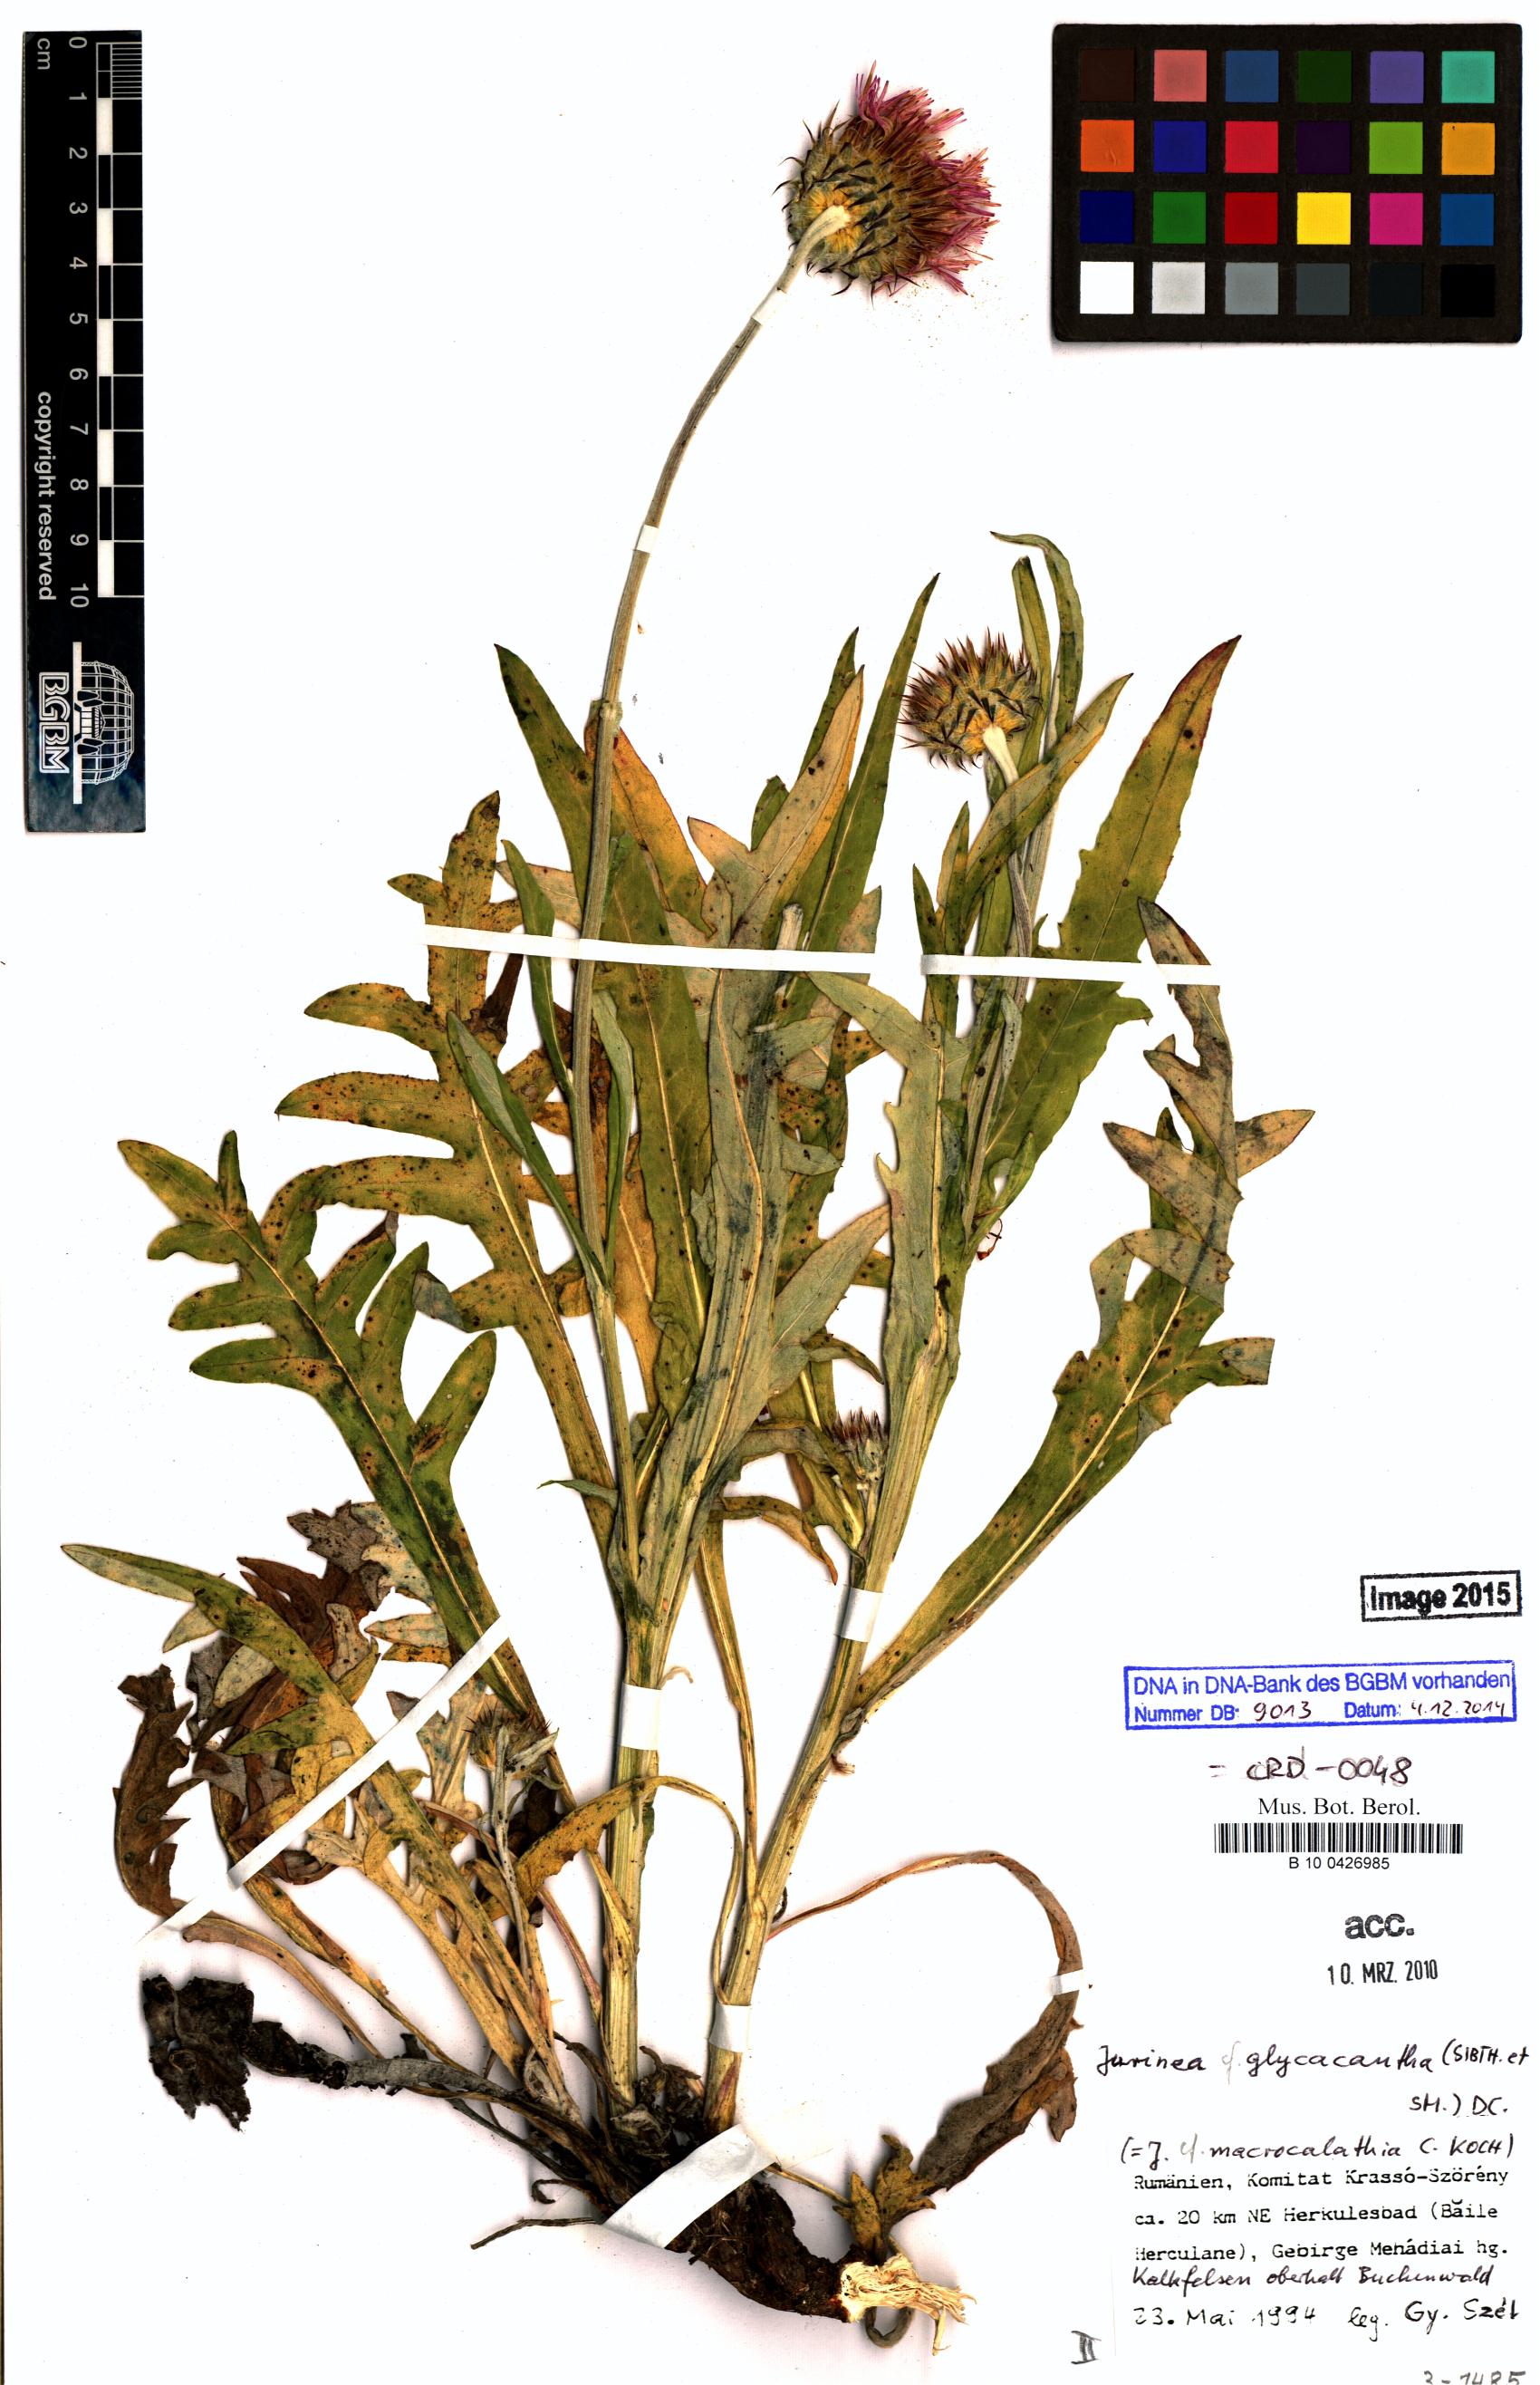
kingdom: Plantae
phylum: Tracheophyta
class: Magnoliopsida
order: Asterales
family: Asteraceae
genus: Jurinea
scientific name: Jurinea glycacantha
